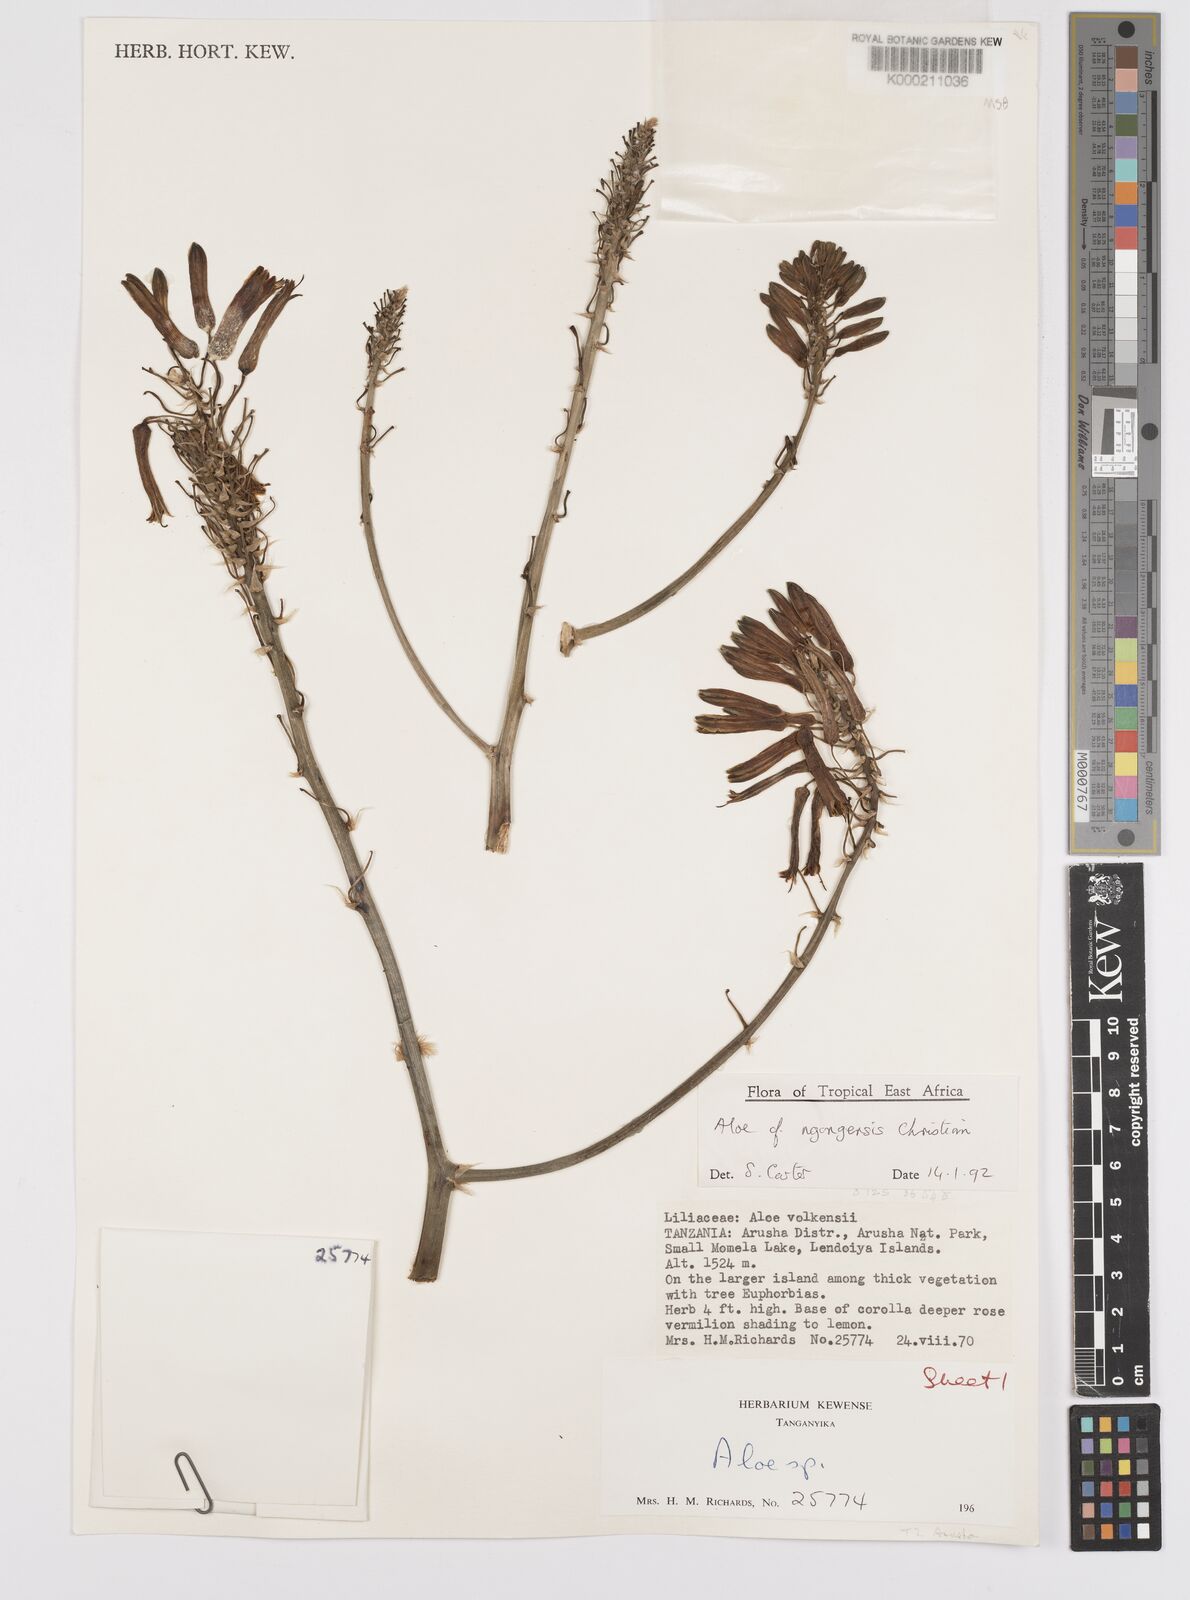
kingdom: Plantae
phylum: Tracheophyta
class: Liliopsida
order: Asparagales
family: Asphodelaceae
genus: Aloe
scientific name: Aloe ngongensis
